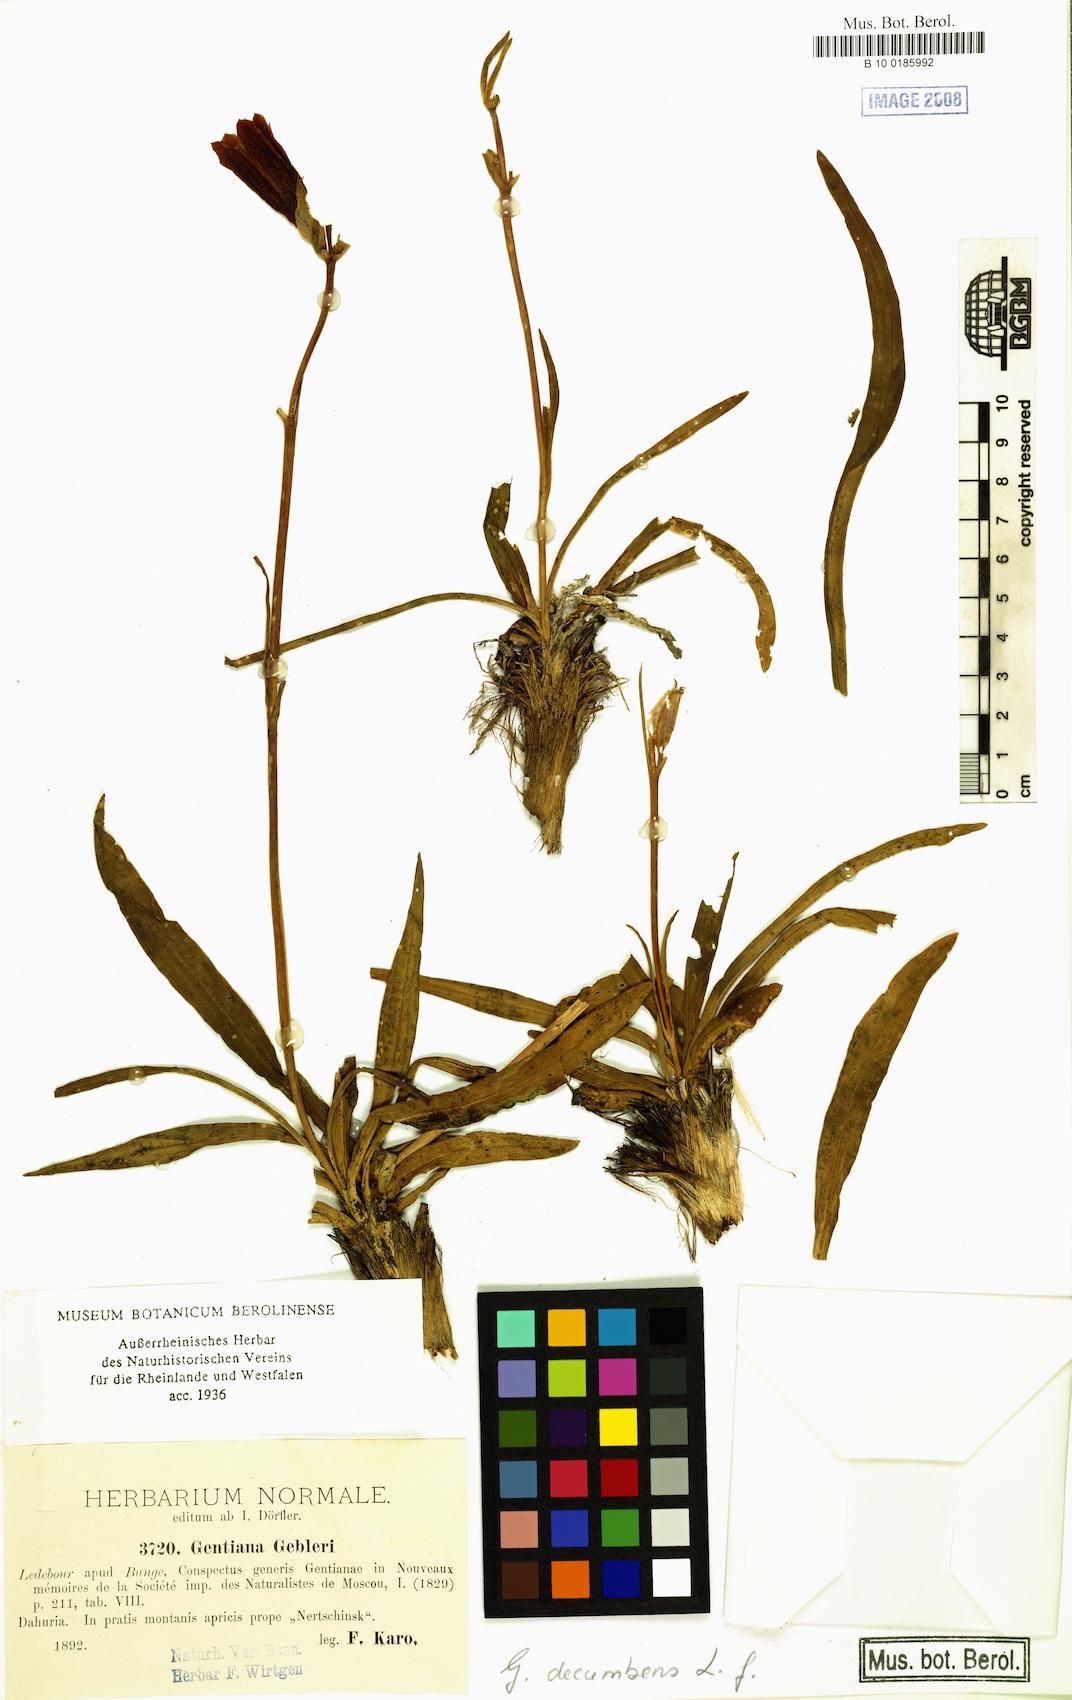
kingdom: Plantae
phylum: Tracheophyta
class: Magnoliopsida
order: Gentianales
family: Gentianaceae
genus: Gentiana
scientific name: Gentiana decumbens
